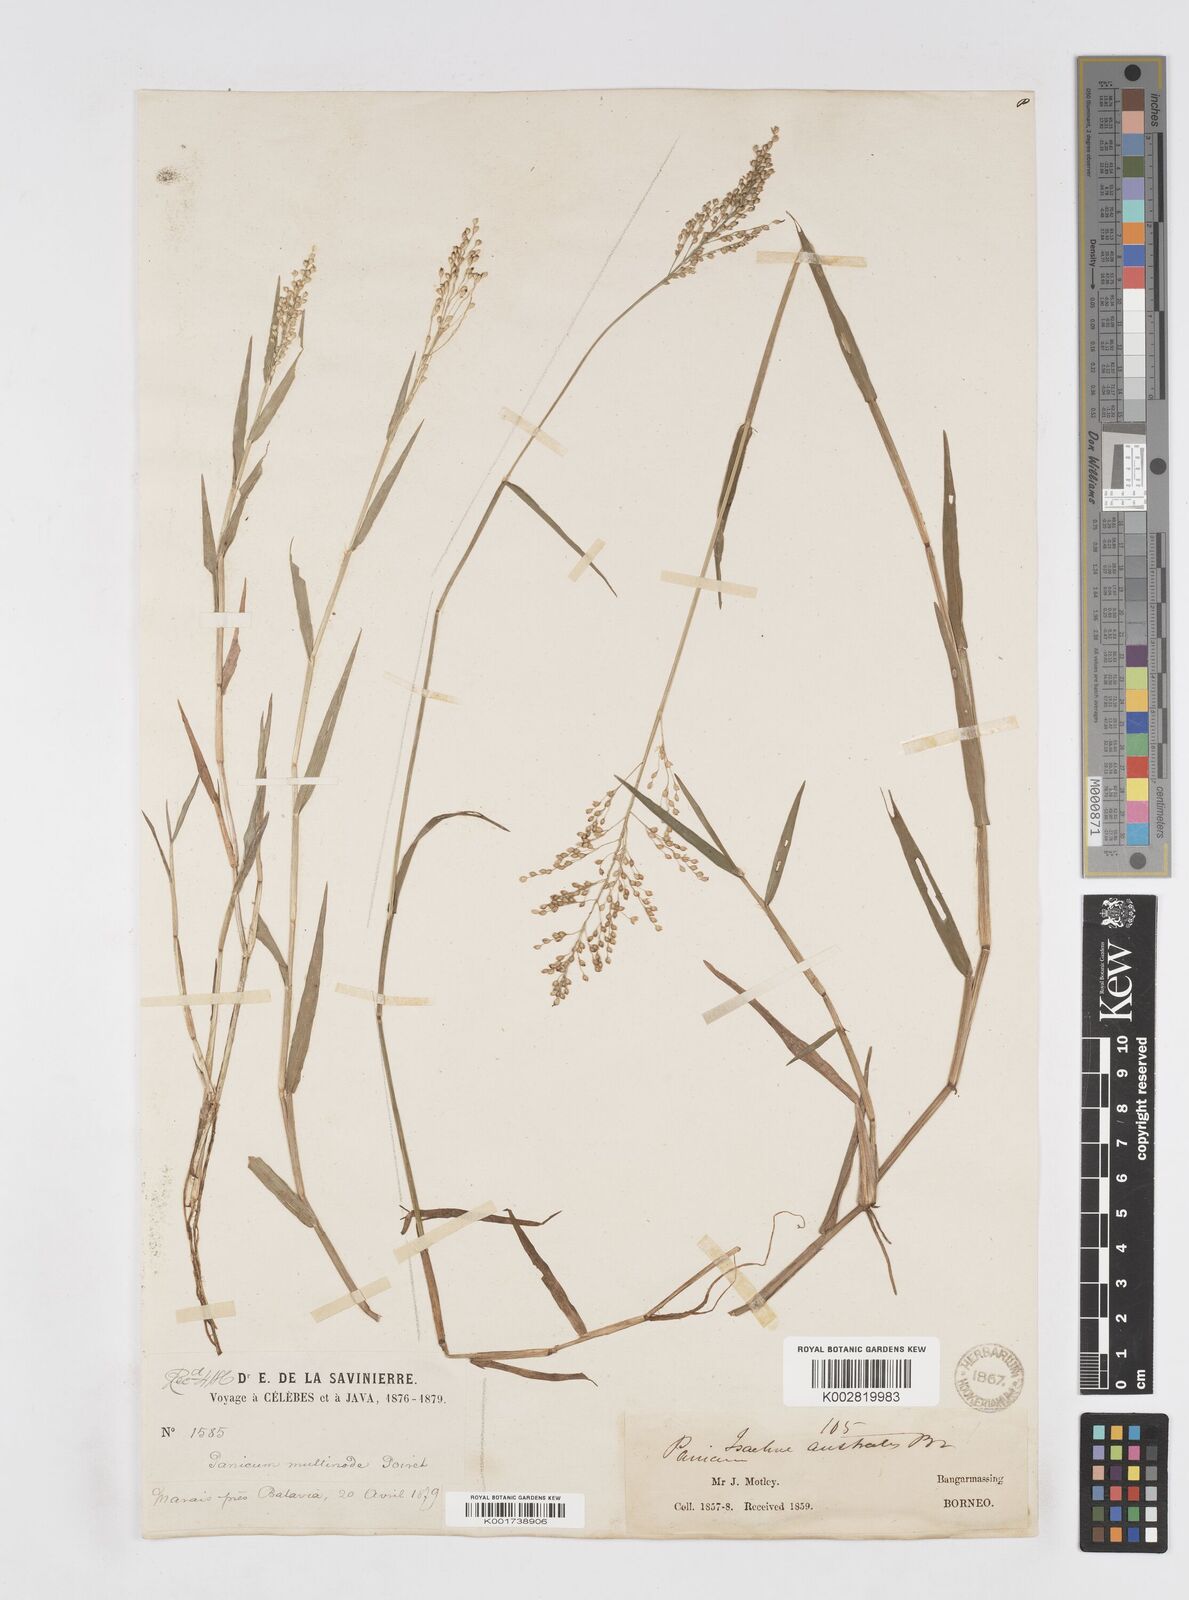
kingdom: Plantae
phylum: Tracheophyta
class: Liliopsida
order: Poales
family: Poaceae
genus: Isachne
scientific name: Isachne globosa
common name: Swamp millet
